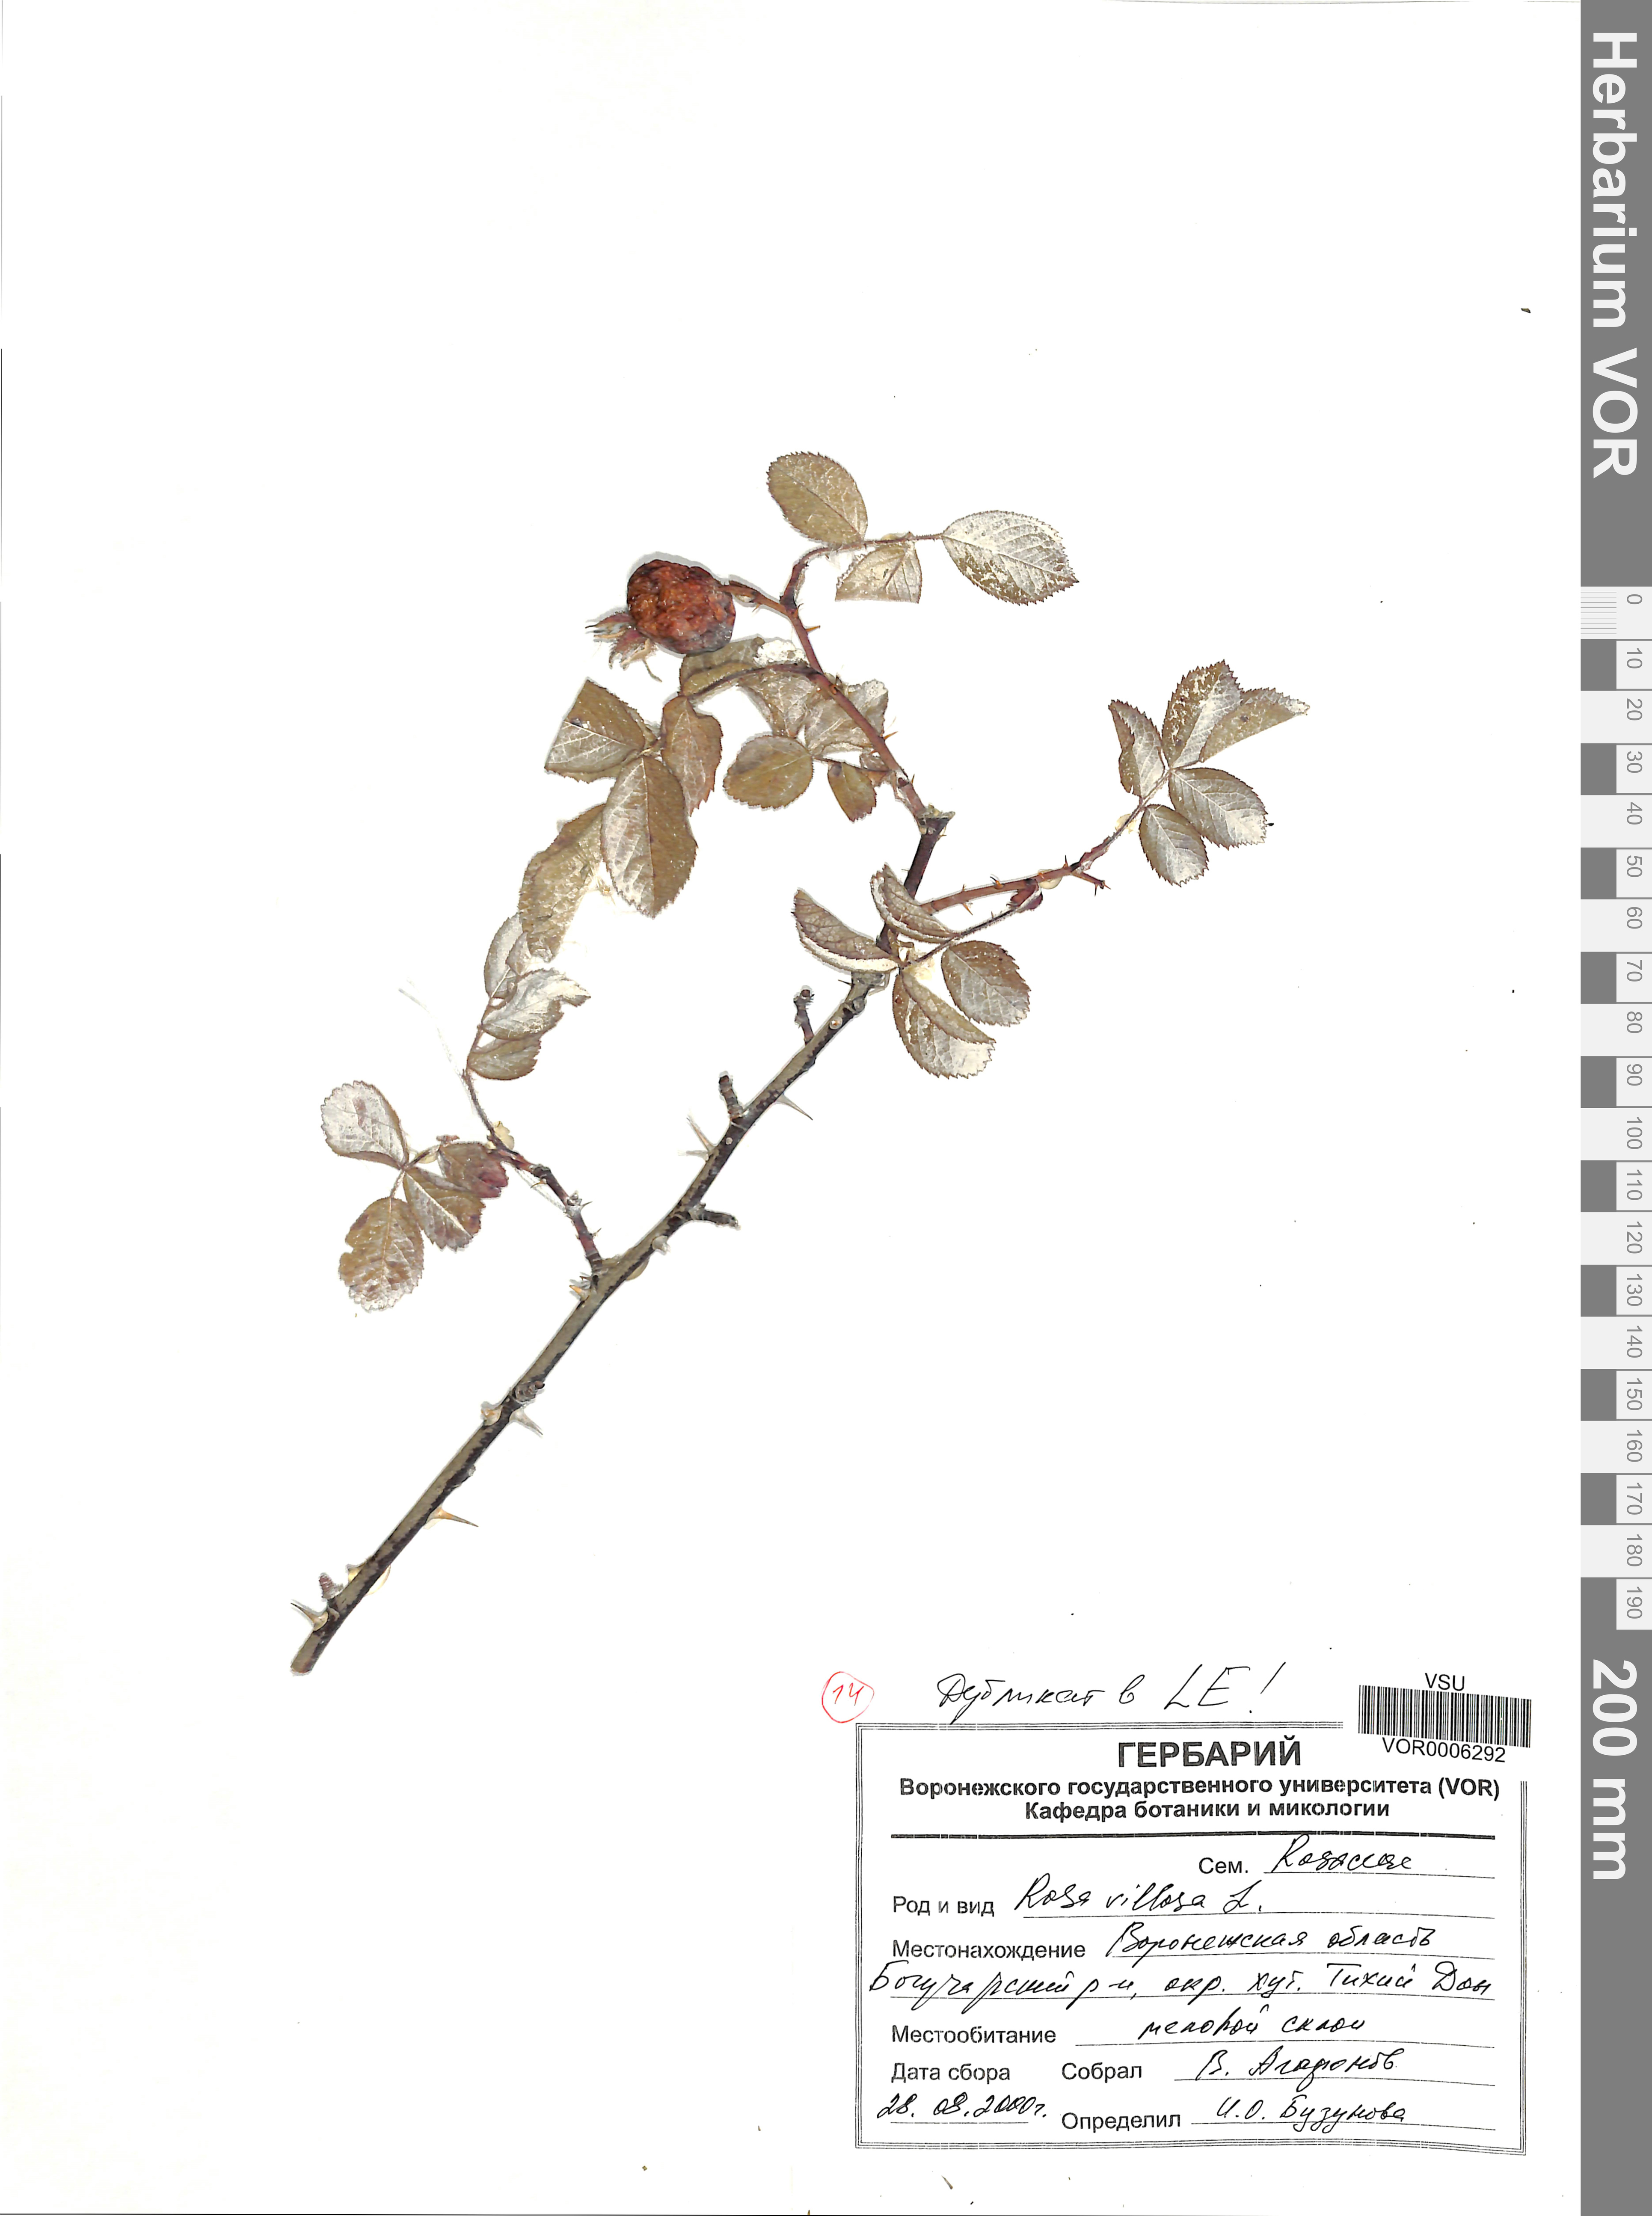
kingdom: Plantae
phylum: Tracheophyta
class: Magnoliopsida
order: Rosales
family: Rosaceae
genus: Rosa
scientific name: Rosa villosa
